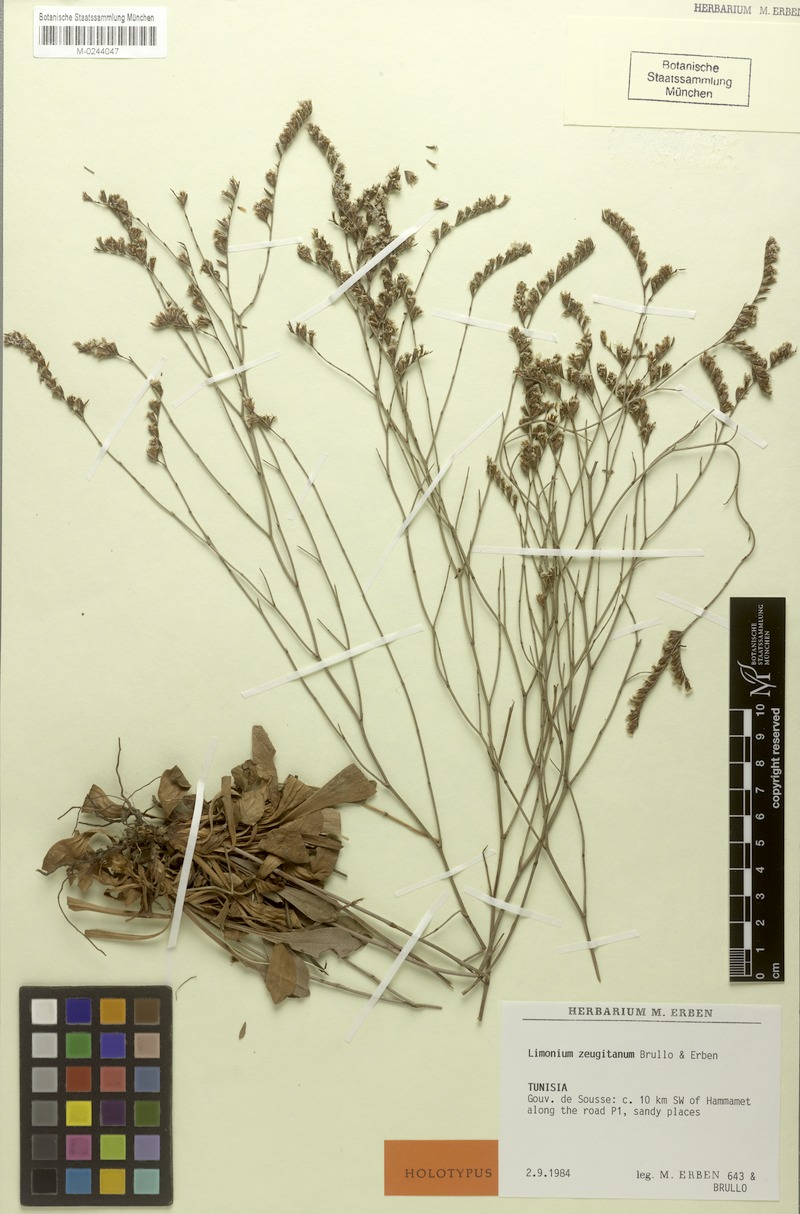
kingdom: Plantae
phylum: Tracheophyta
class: Magnoliopsida
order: Caryophyllales
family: Plumbaginaceae
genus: Limonium
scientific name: Limonium zeugitanum
